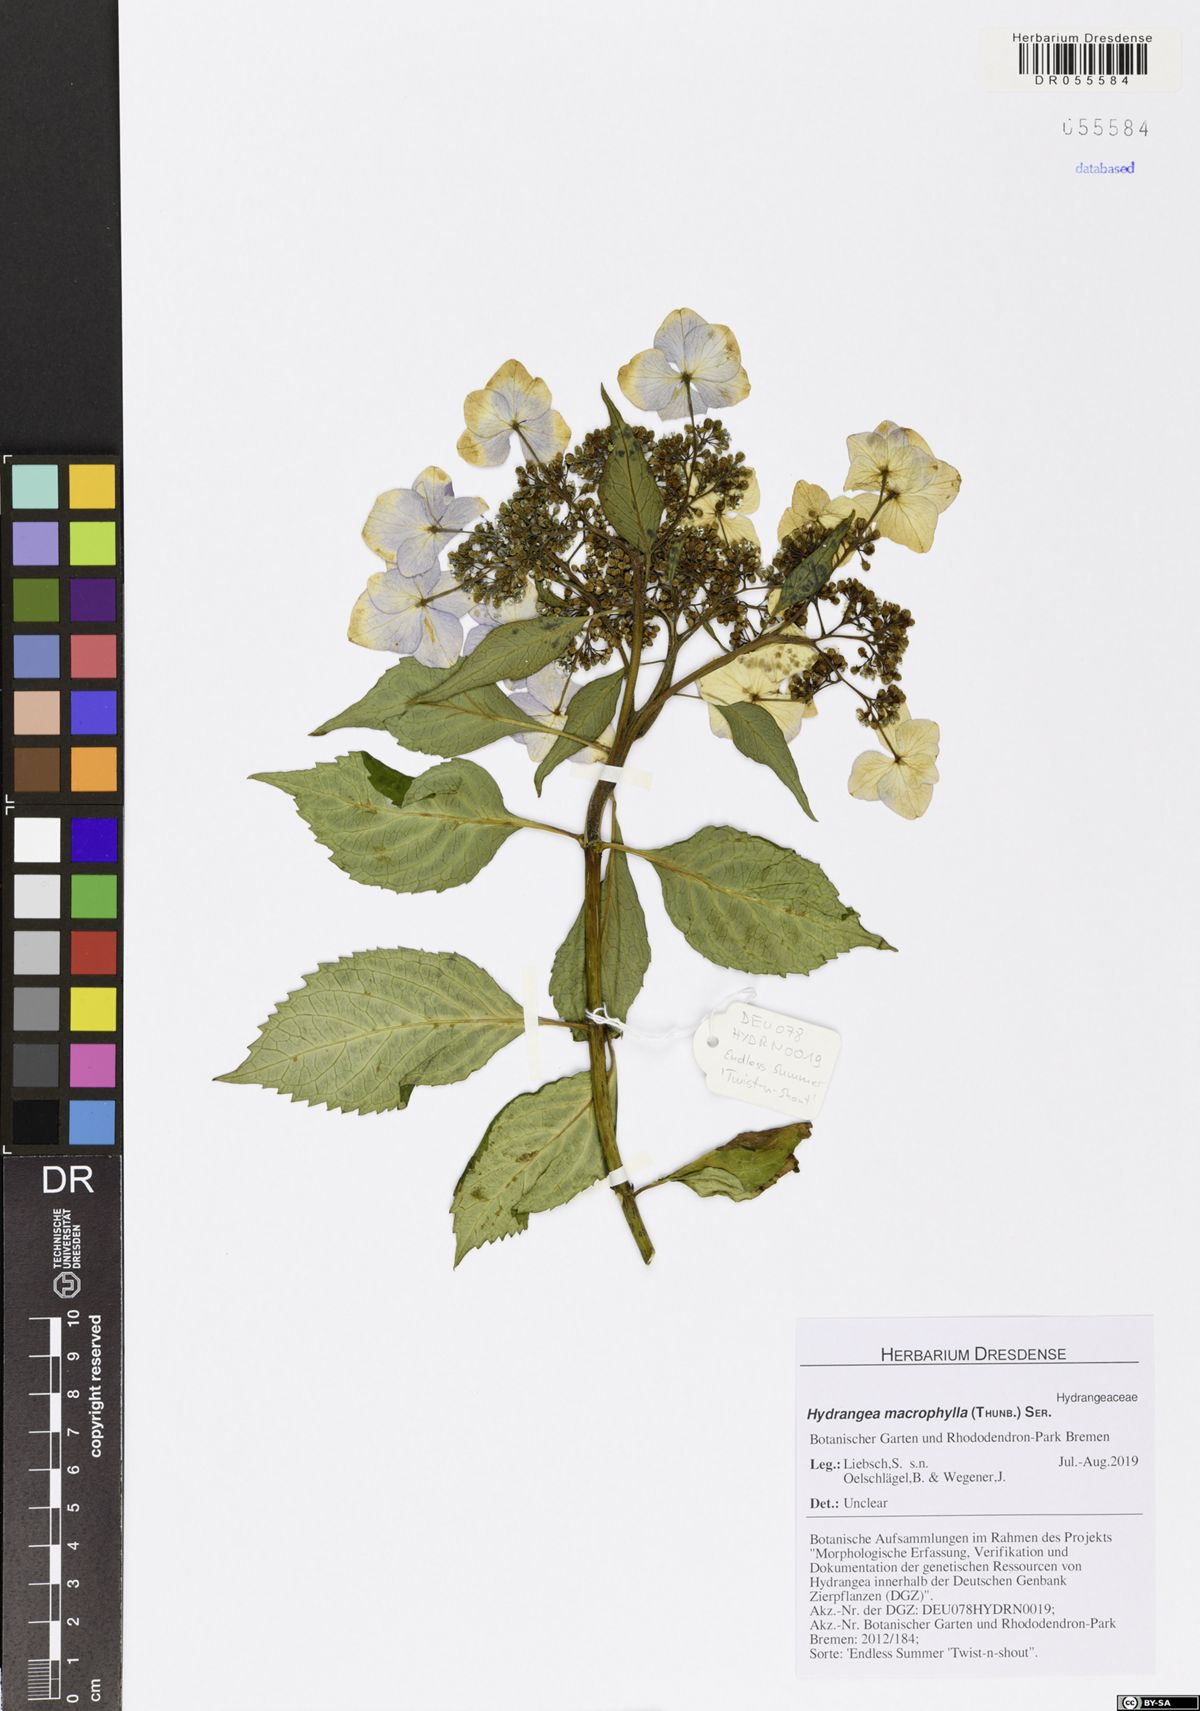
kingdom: Plantae
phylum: Tracheophyta
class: Magnoliopsida
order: Cornales
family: Hydrangeaceae
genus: Hydrangea
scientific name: Hydrangea macrophylla
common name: Hydrangea
